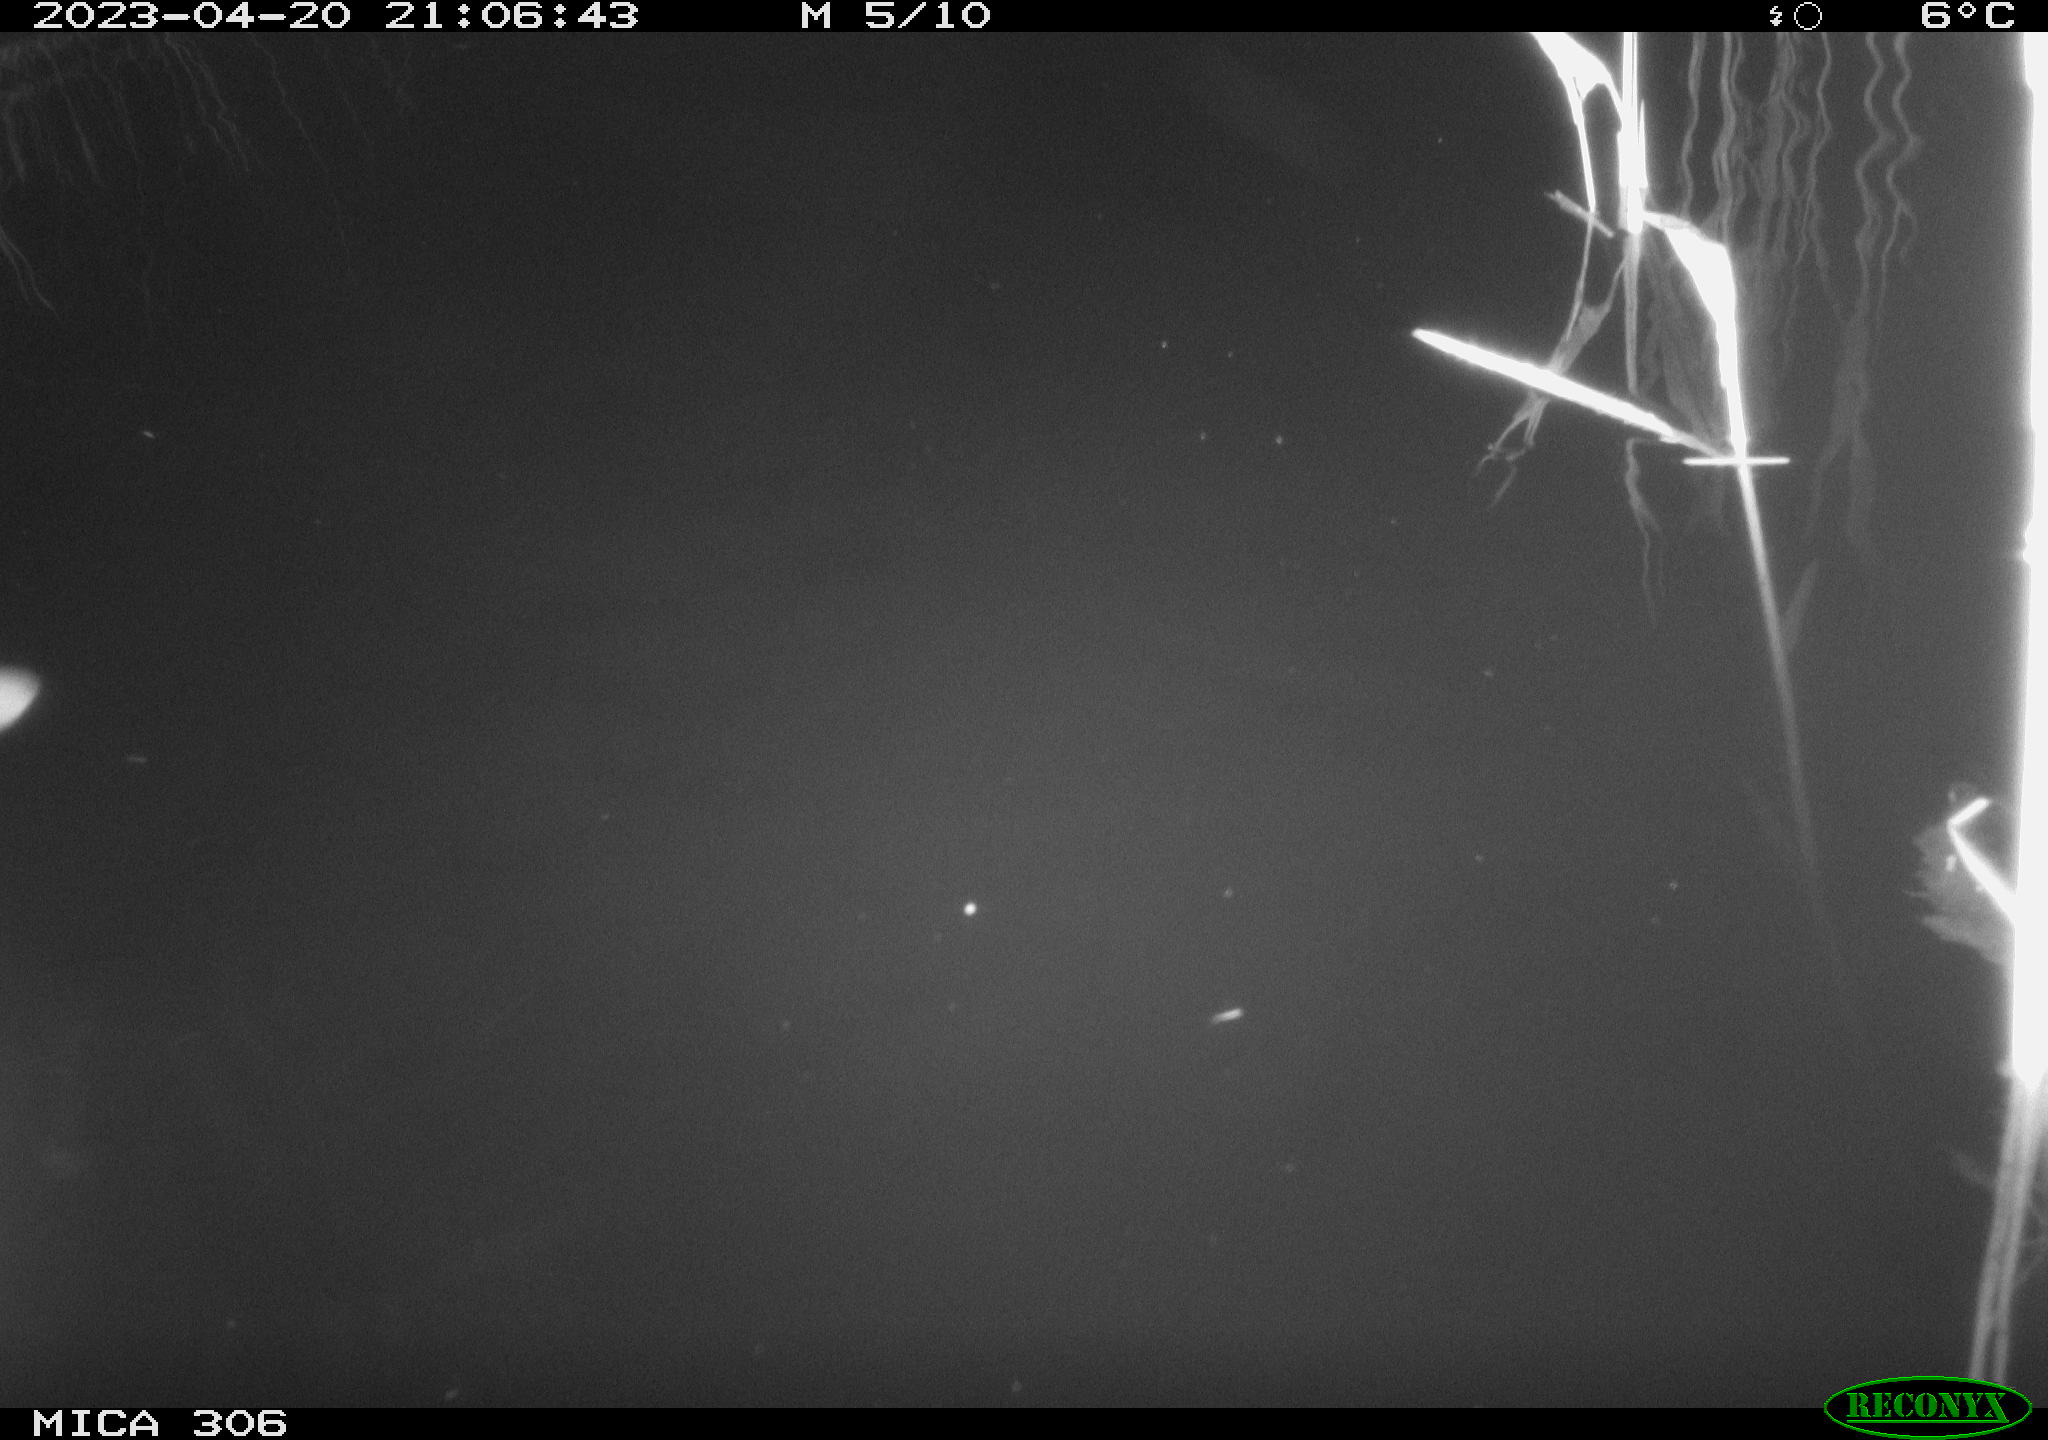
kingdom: Animalia
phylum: Chordata
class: Aves
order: Anseriformes
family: Anatidae
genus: Anas
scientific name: Anas
